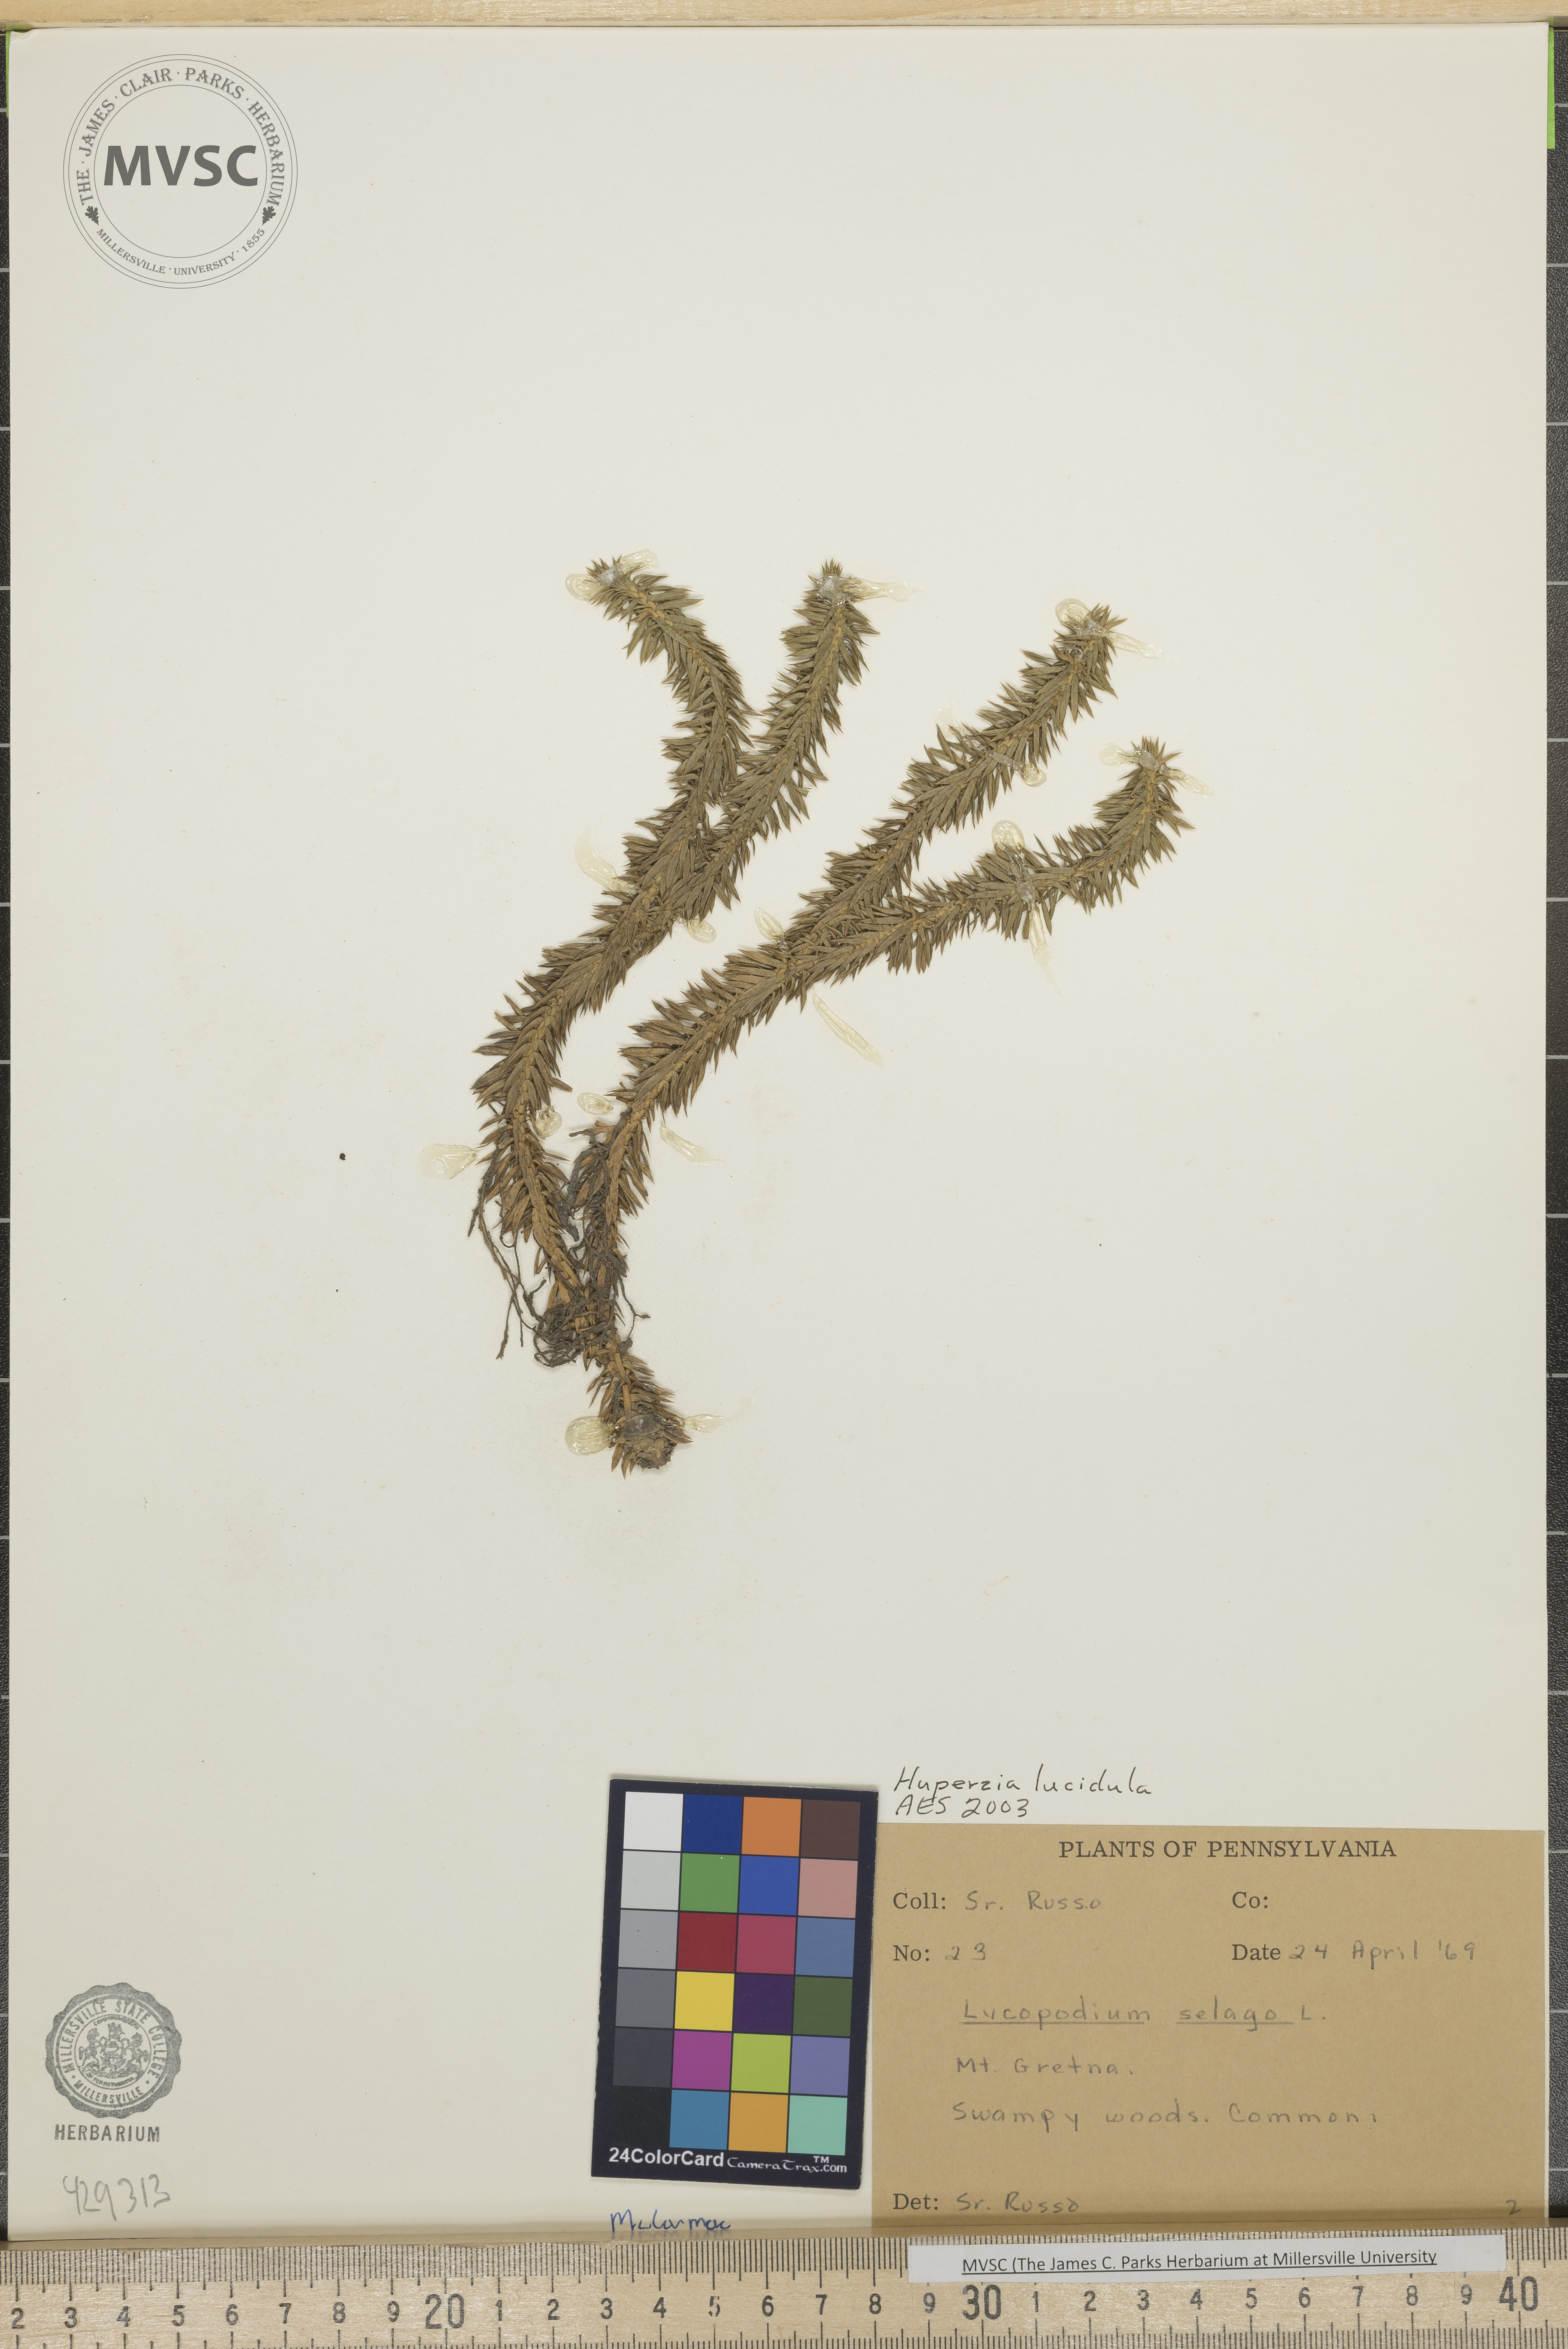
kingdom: Plantae
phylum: Tracheophyta
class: Lycopodiopsida
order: Lycopodiales
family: Lycopodiaceae
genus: Huperzia
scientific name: Huperzia lucidula
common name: Shining clubmoss
